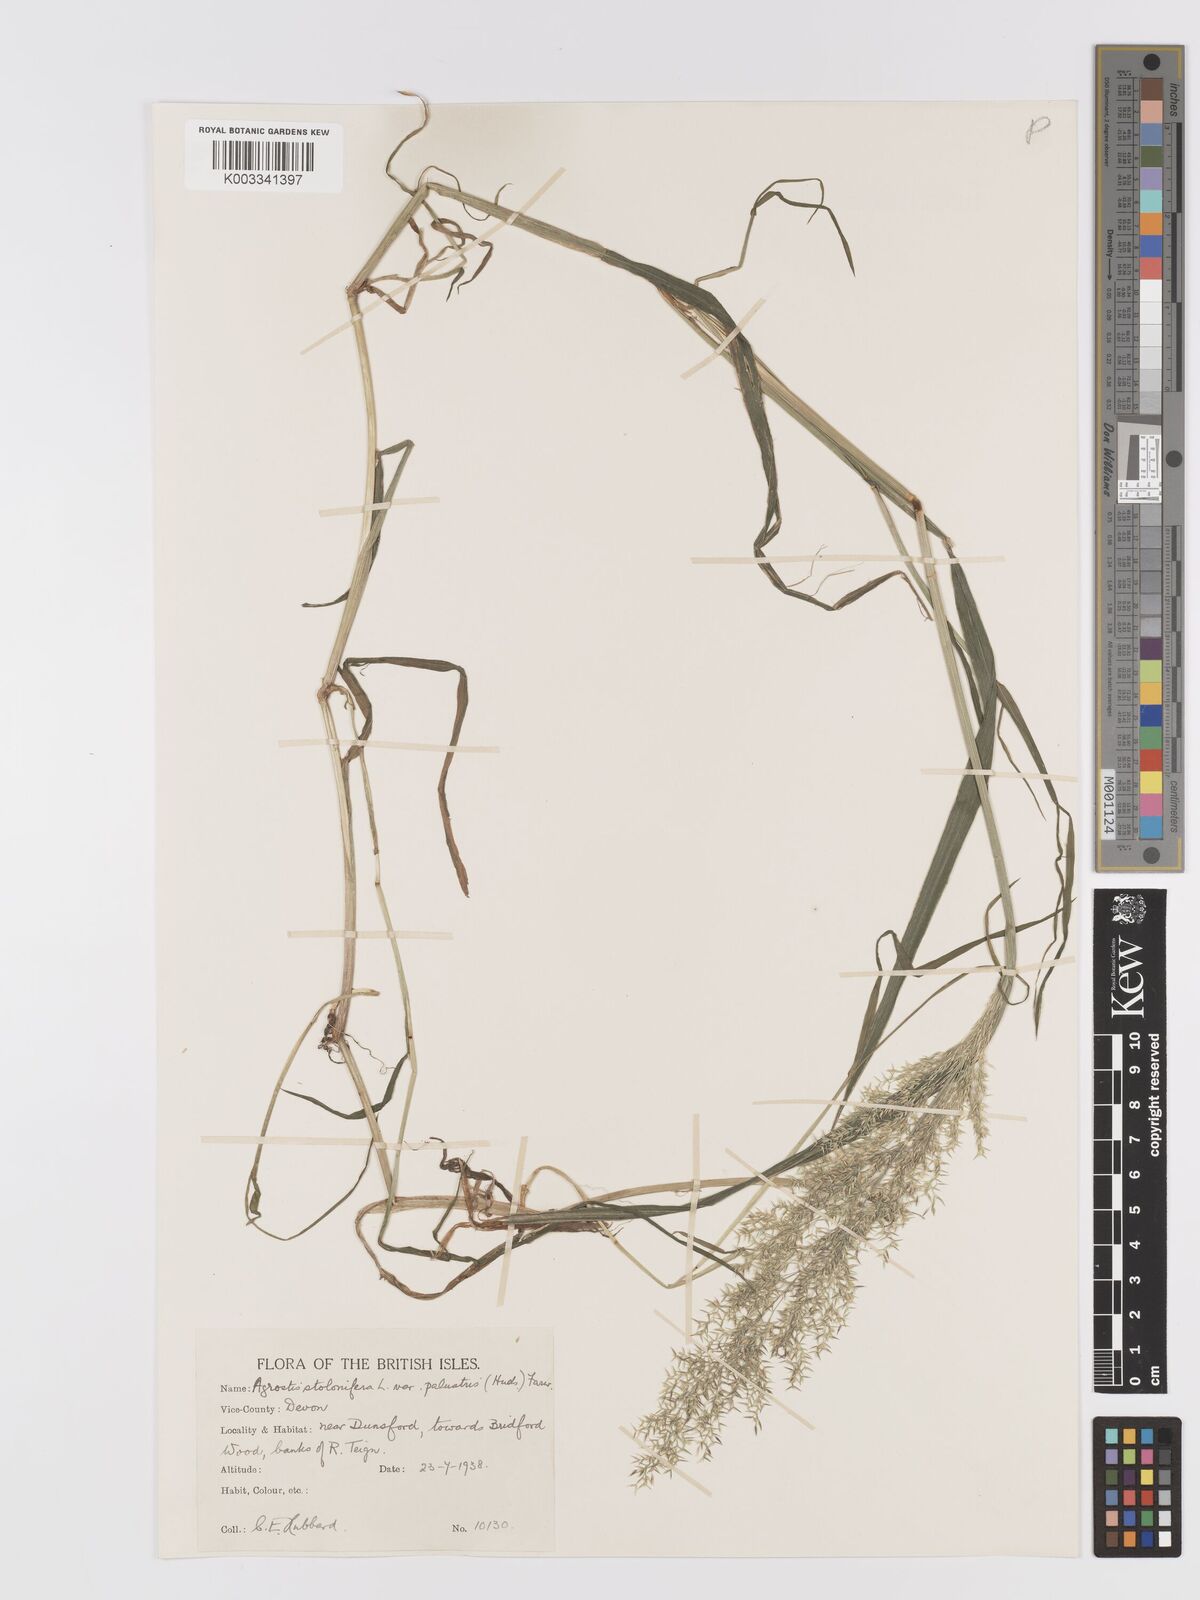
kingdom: Plantae
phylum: Tracheophyta
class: Liliopsida
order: Poales
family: Poaceae
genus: Agrostis
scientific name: Agrostis stolonifera
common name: Creeping bentgrass
